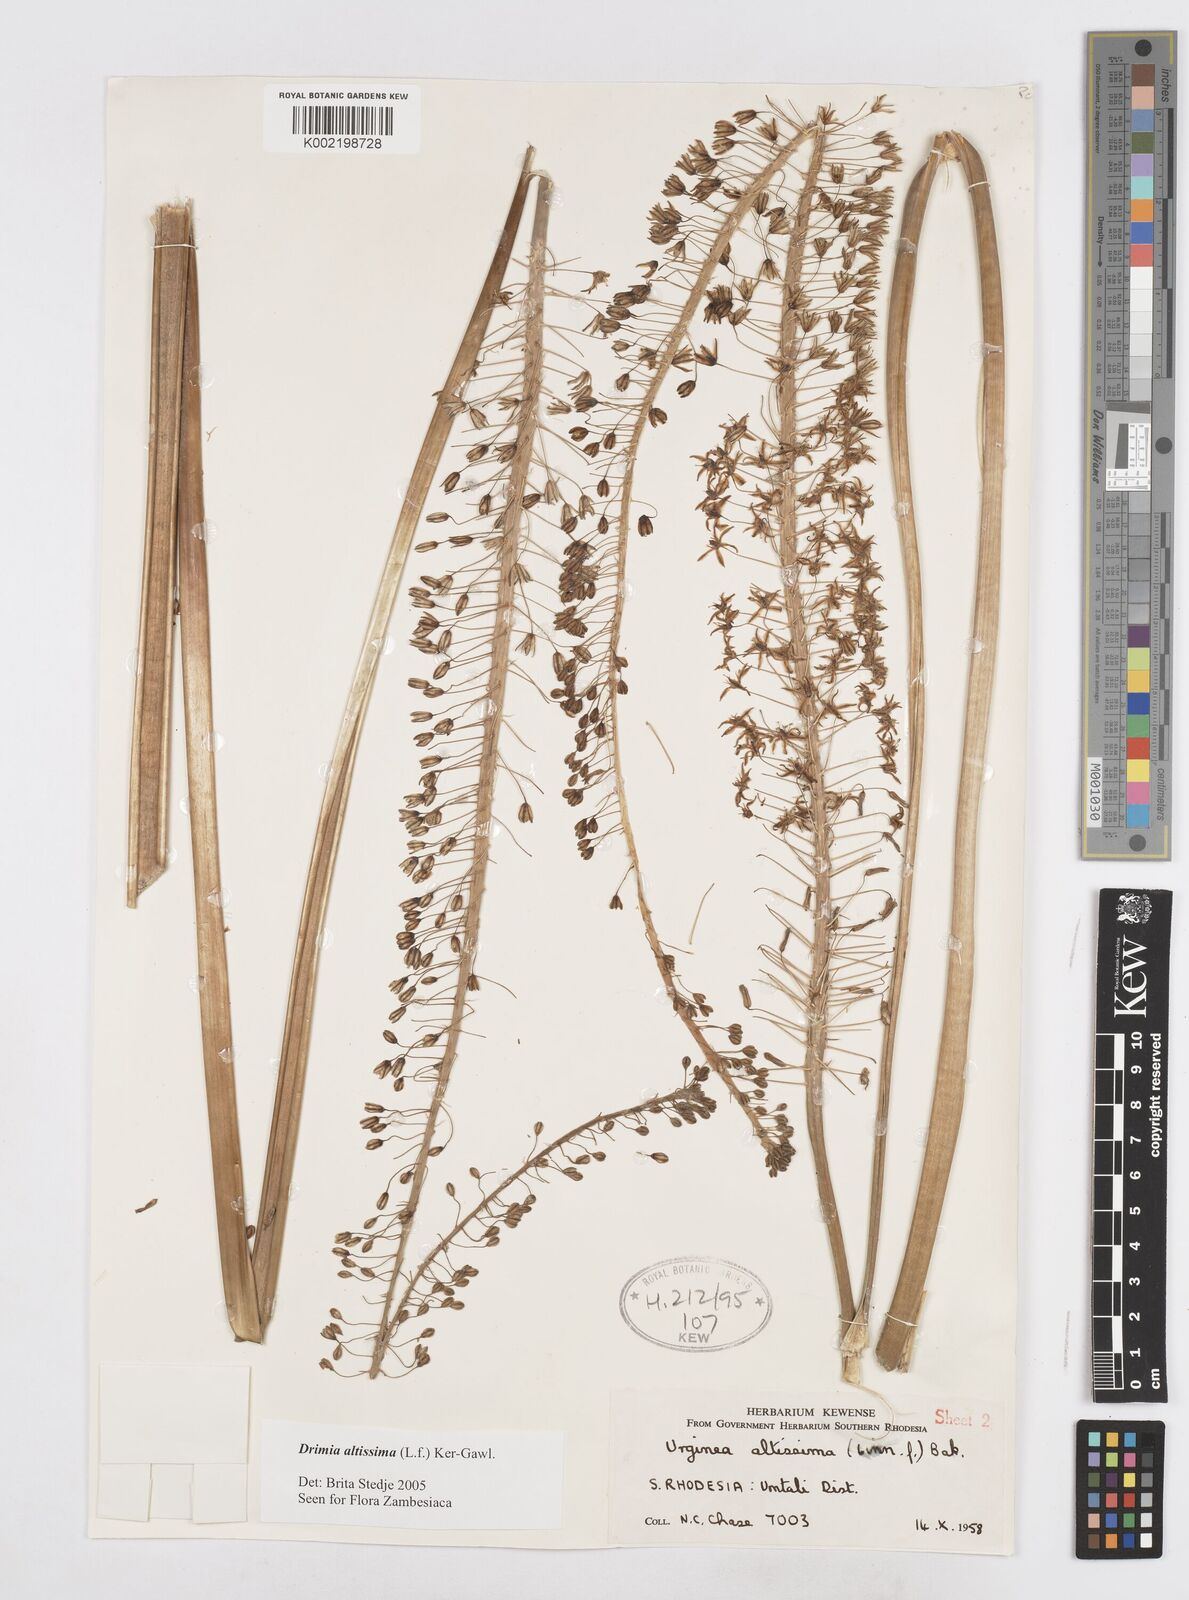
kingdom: Plantae
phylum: Tracheophyta
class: Liliopsida
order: Asparagales
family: Asparagaceae
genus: Drimia
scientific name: Drimia
